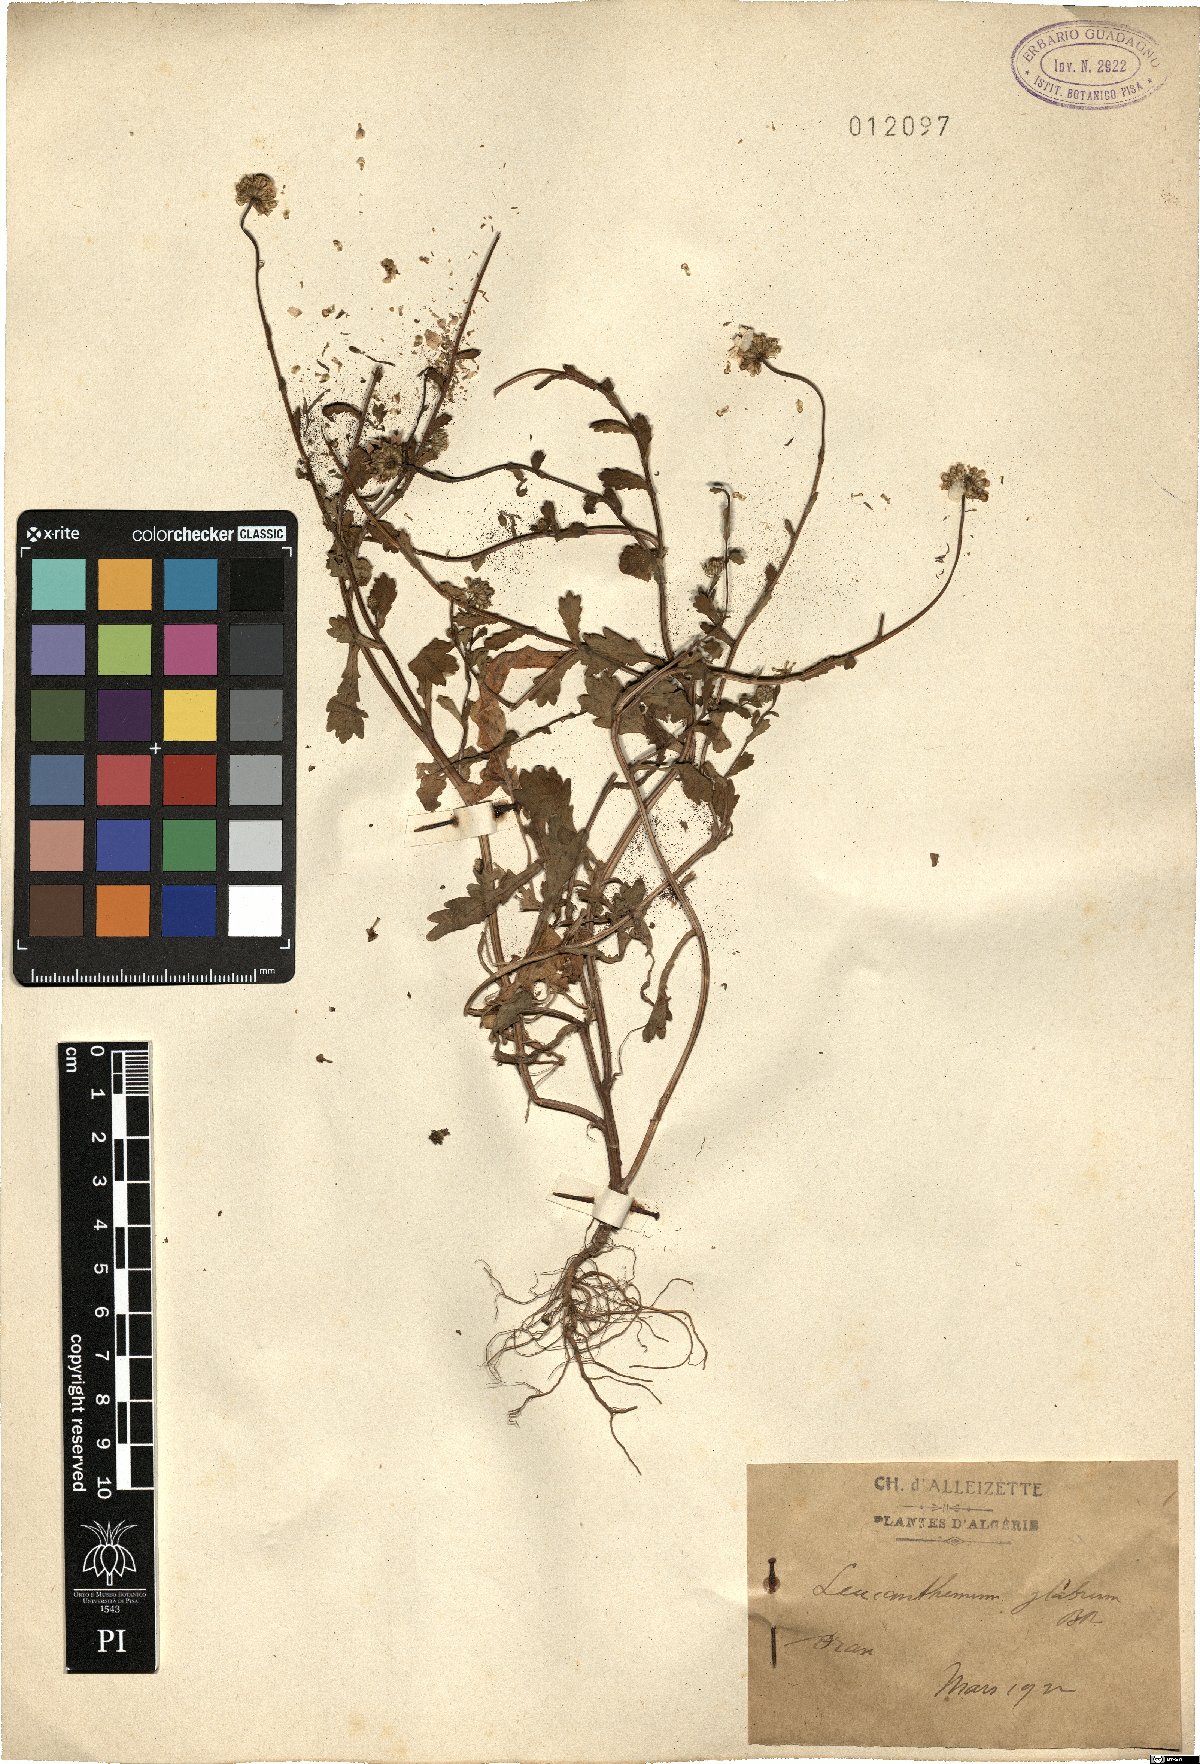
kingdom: Plantae
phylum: Tracheophyta
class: Magnoliopsida
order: Asterales
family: Asteraceae
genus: Mauranthemum
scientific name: Mauranthemum paludosum
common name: Sunflower
